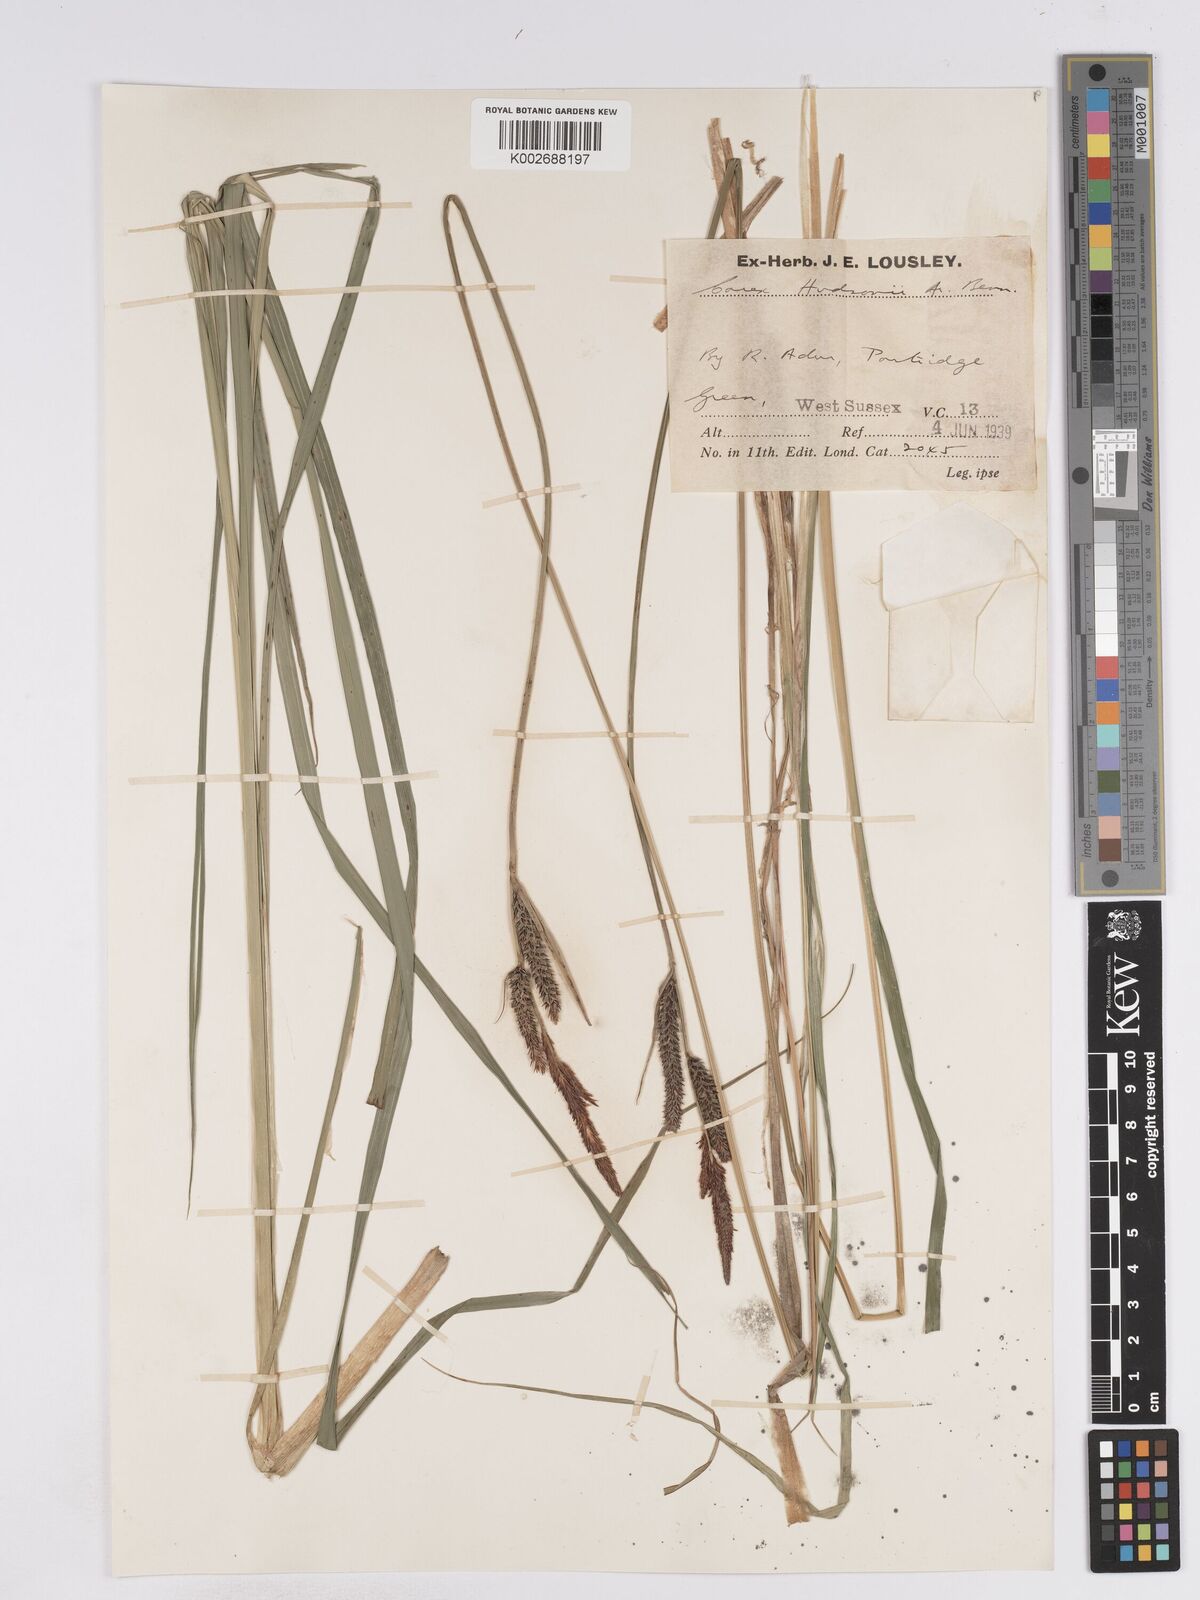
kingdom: Plantae
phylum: Tracheophyta
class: Liliopsida
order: Poales
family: Cyperaceae
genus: Carex
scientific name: Carex elata
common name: Tufted sedge
